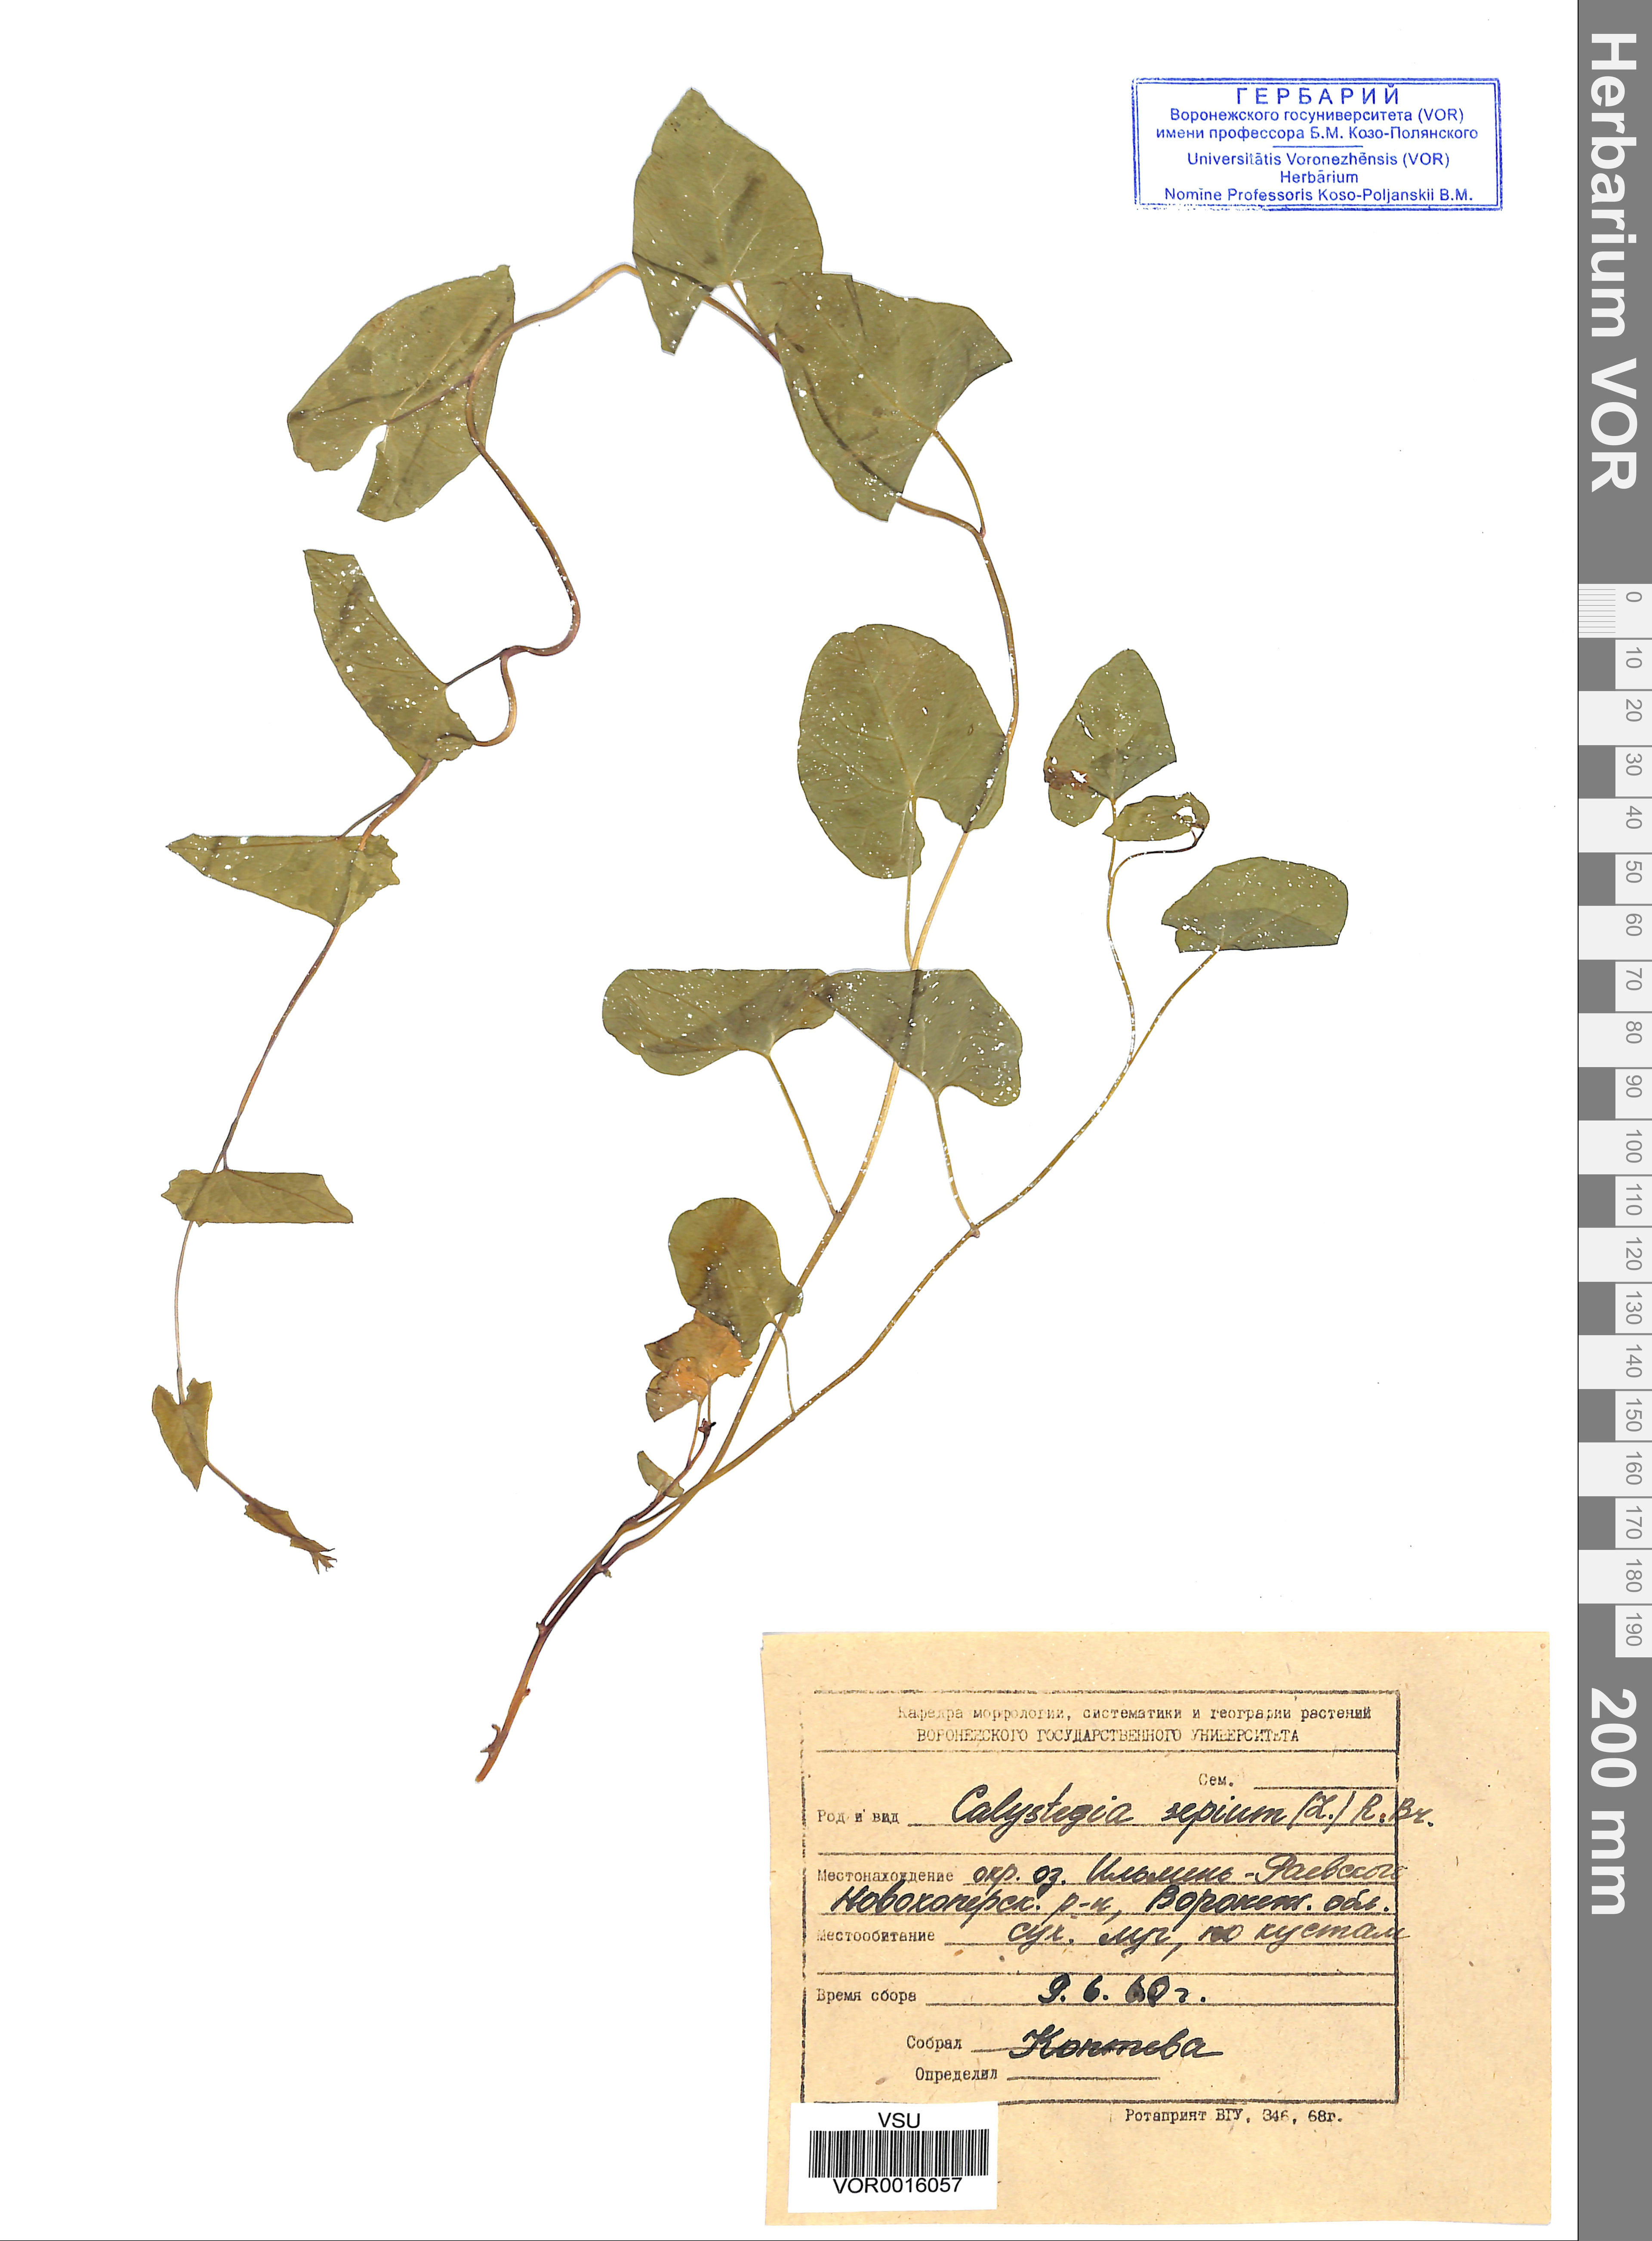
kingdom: Plantae
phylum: Tracheophyta
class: Magnoliopsida
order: Solanales
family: Convolvulaceae
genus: Calystegia
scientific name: Calystegia sepium
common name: Hedge bindweed
